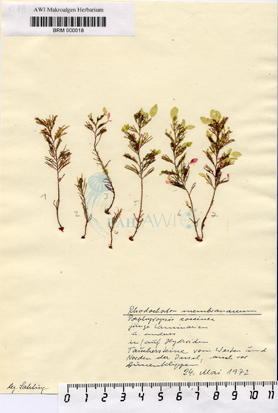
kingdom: Plantae
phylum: Rhodophyta
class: Florideophyceae
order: Palmariales
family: Meiodiscaceae
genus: Rubrointrusa
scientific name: Rubrointrusa membranacea
